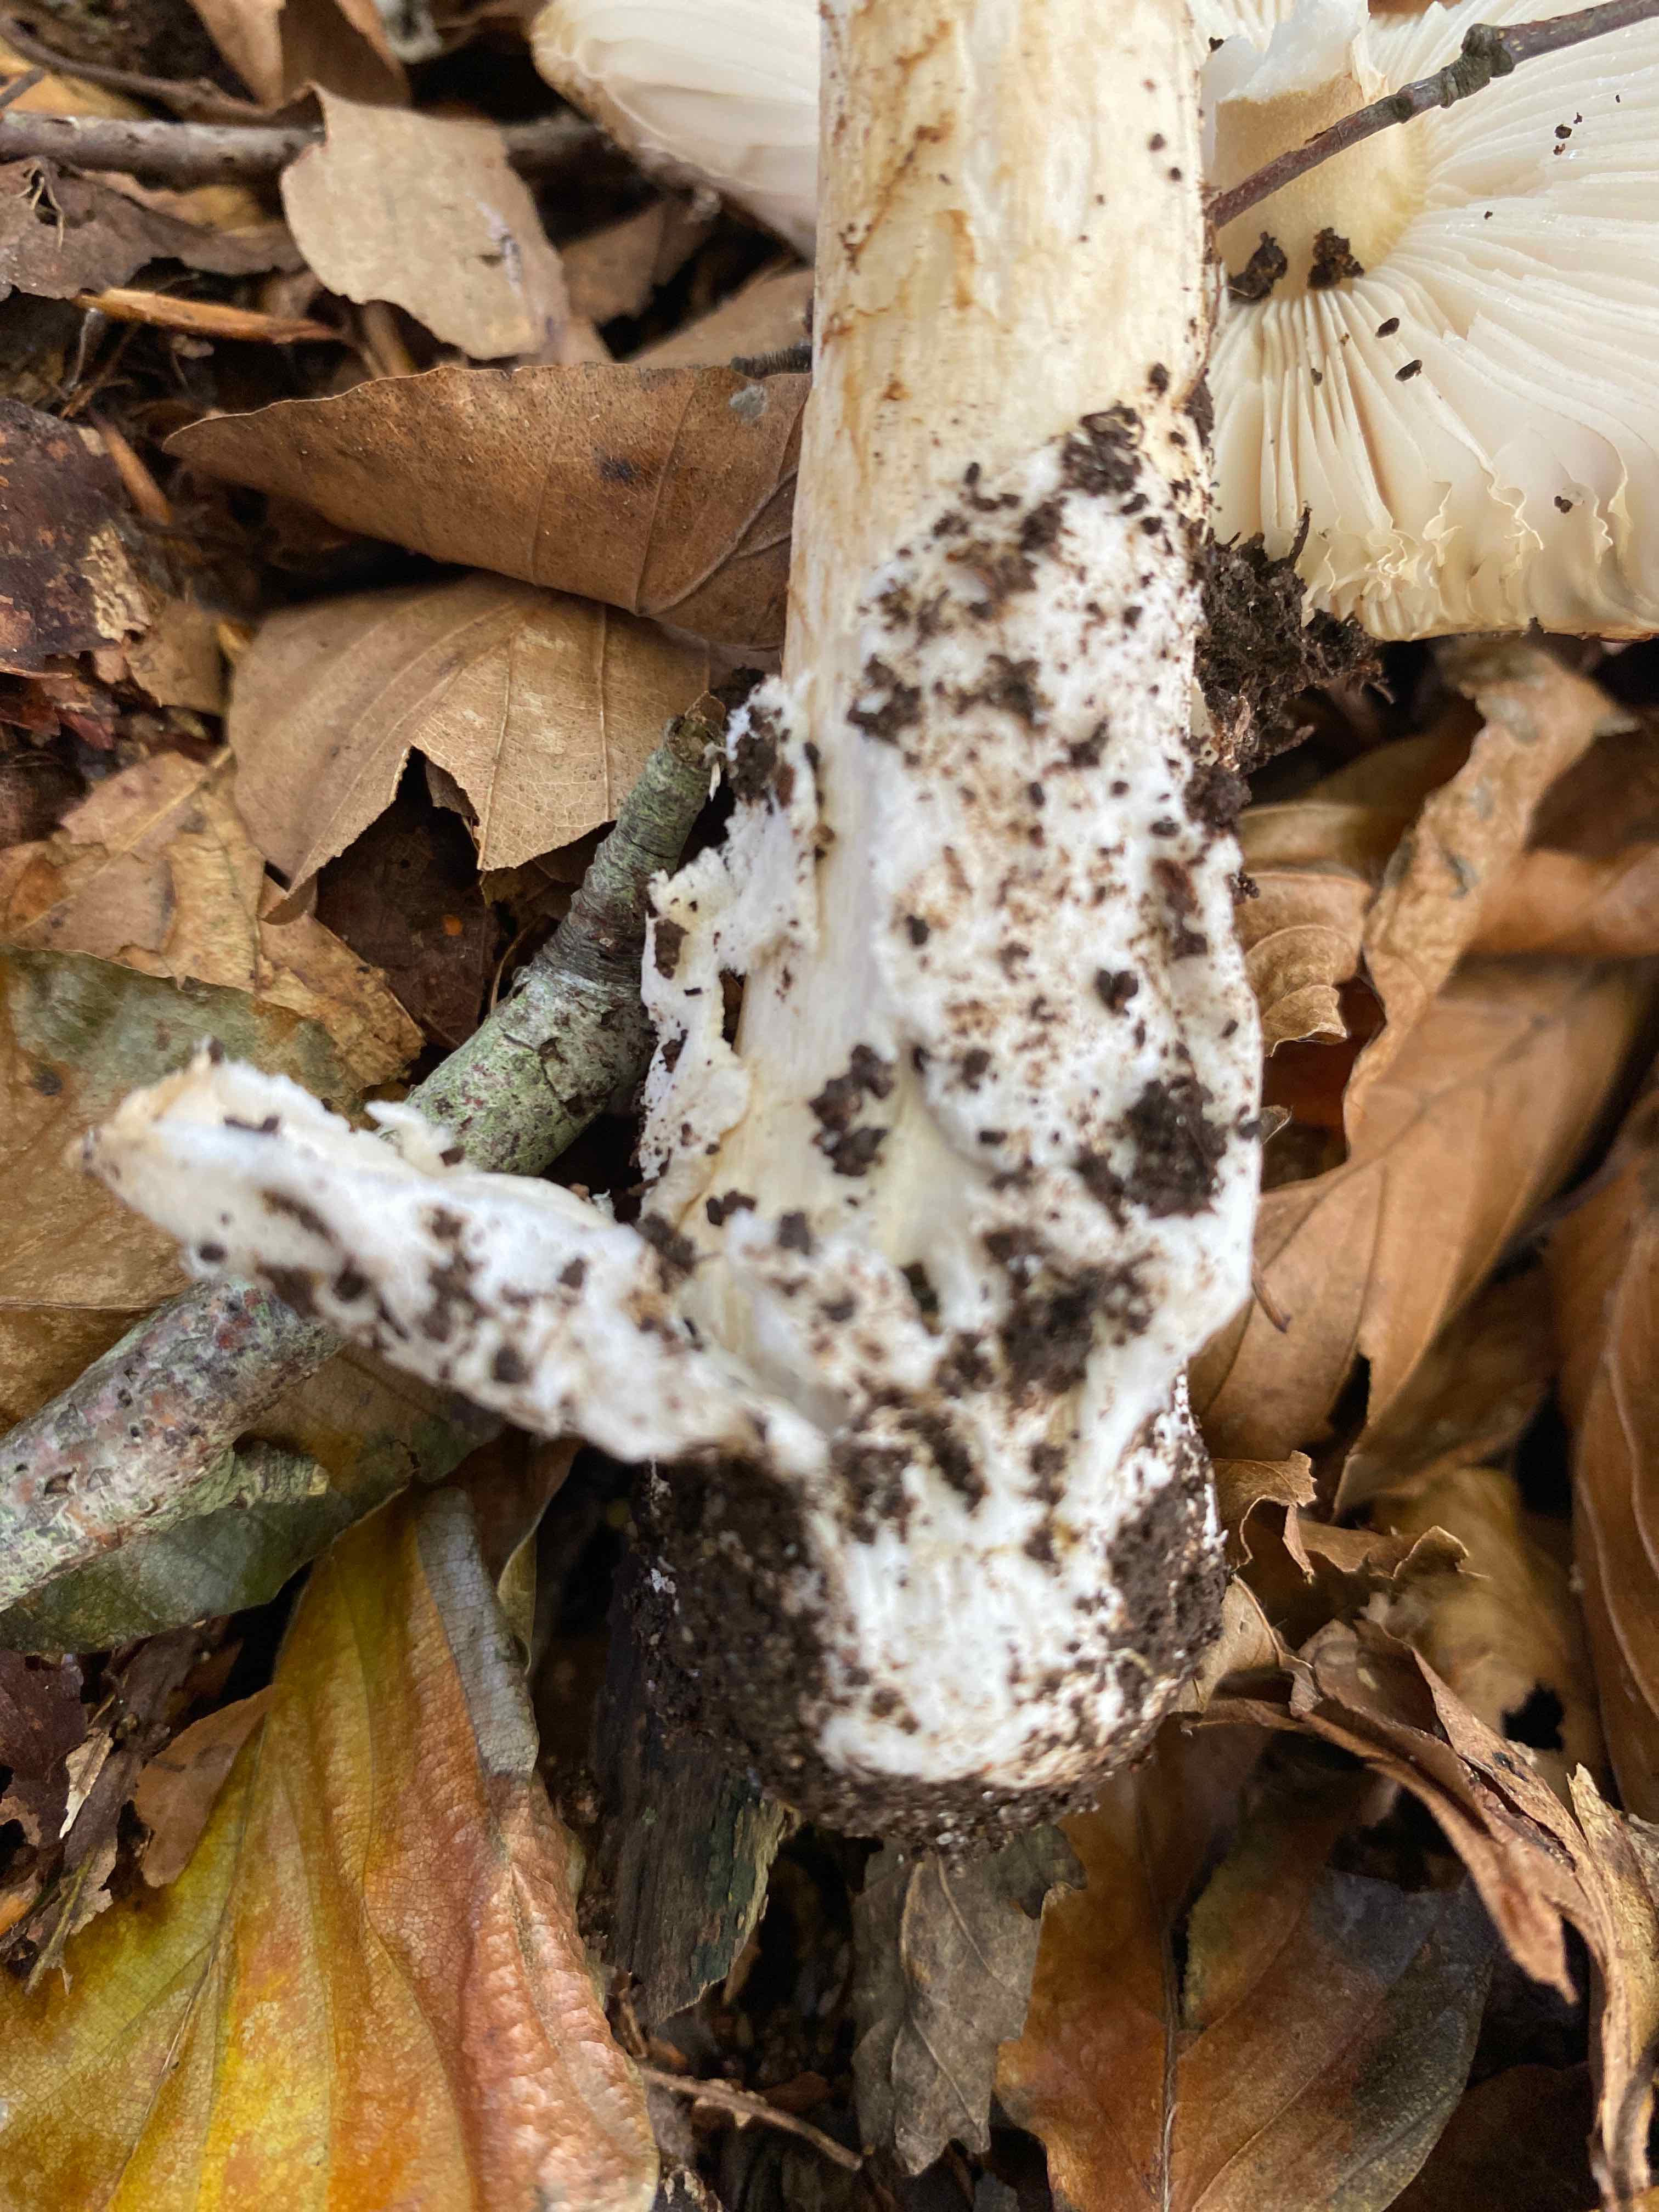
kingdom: Fungi
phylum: Basidiomycota
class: Agaricomycetes
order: Agaricales
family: Amanitaceae
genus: Amanita
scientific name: Amanita
